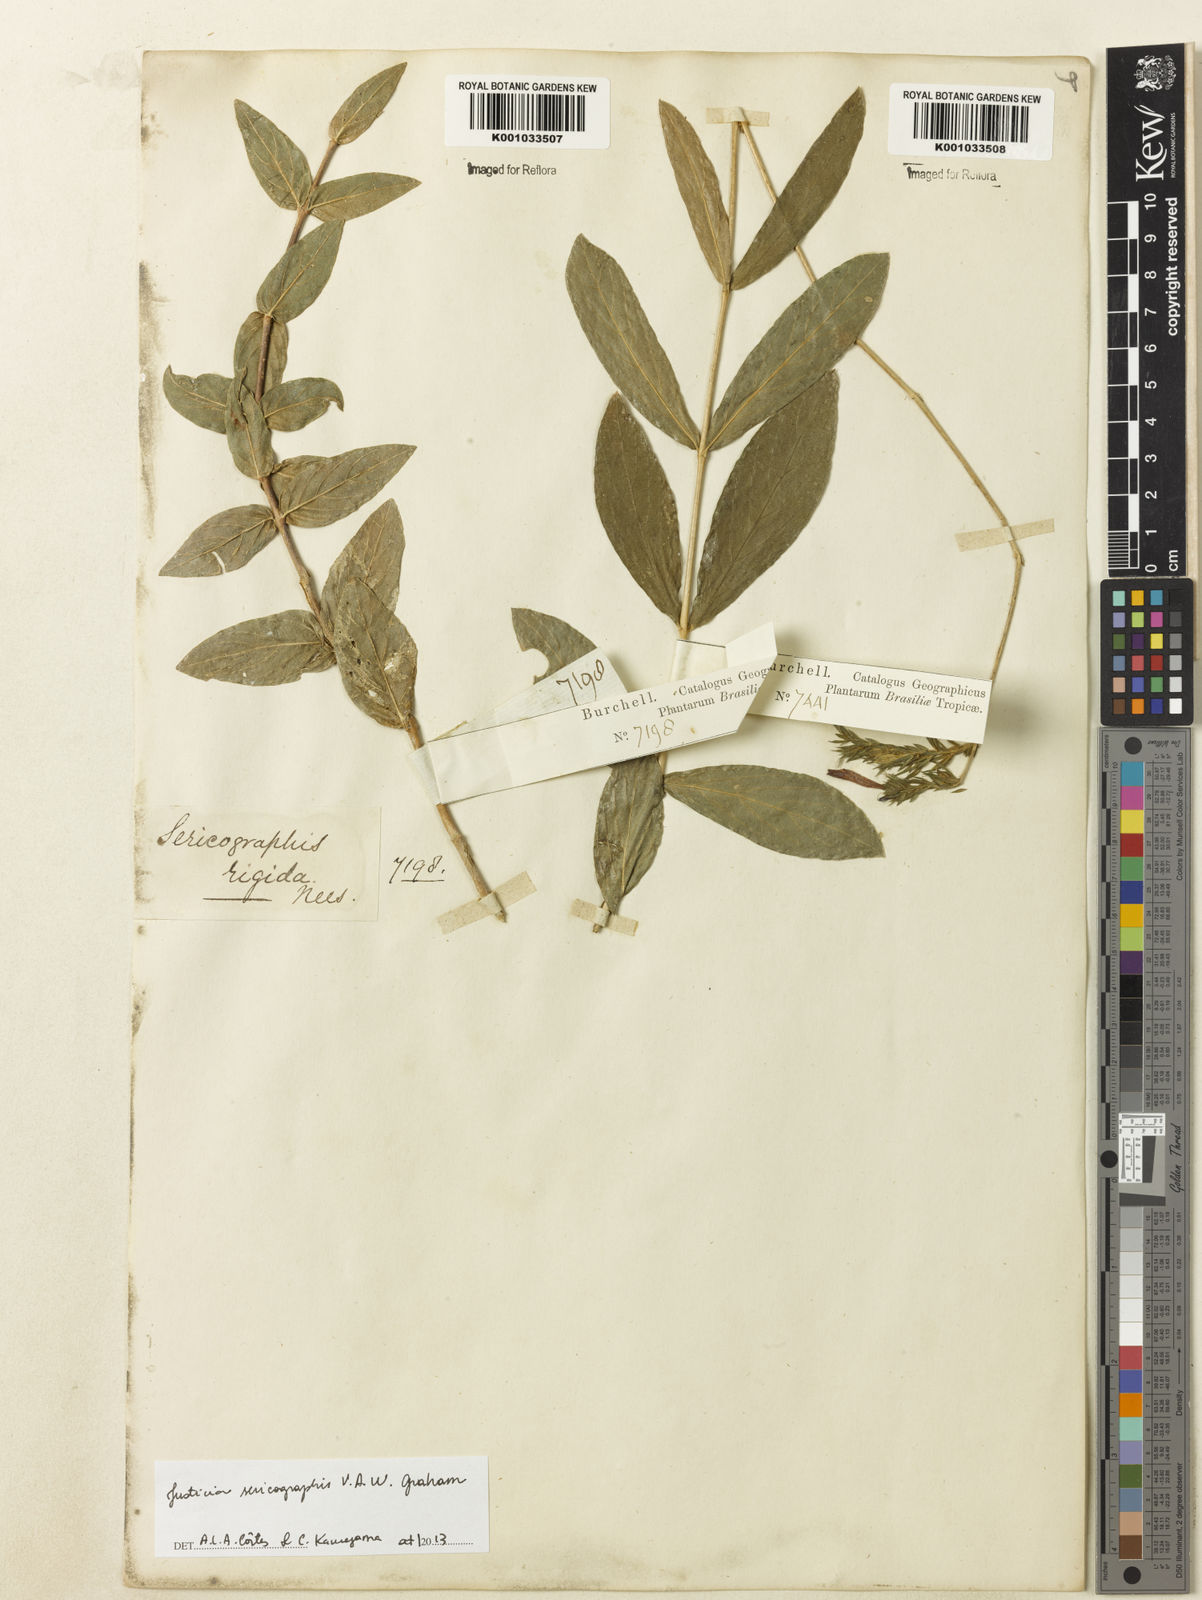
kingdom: Plantae
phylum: Tracheophyta
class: Magnoliopsida
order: Lamiales
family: Acanthaceae
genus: Dianthera
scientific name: Dianthera rigida
